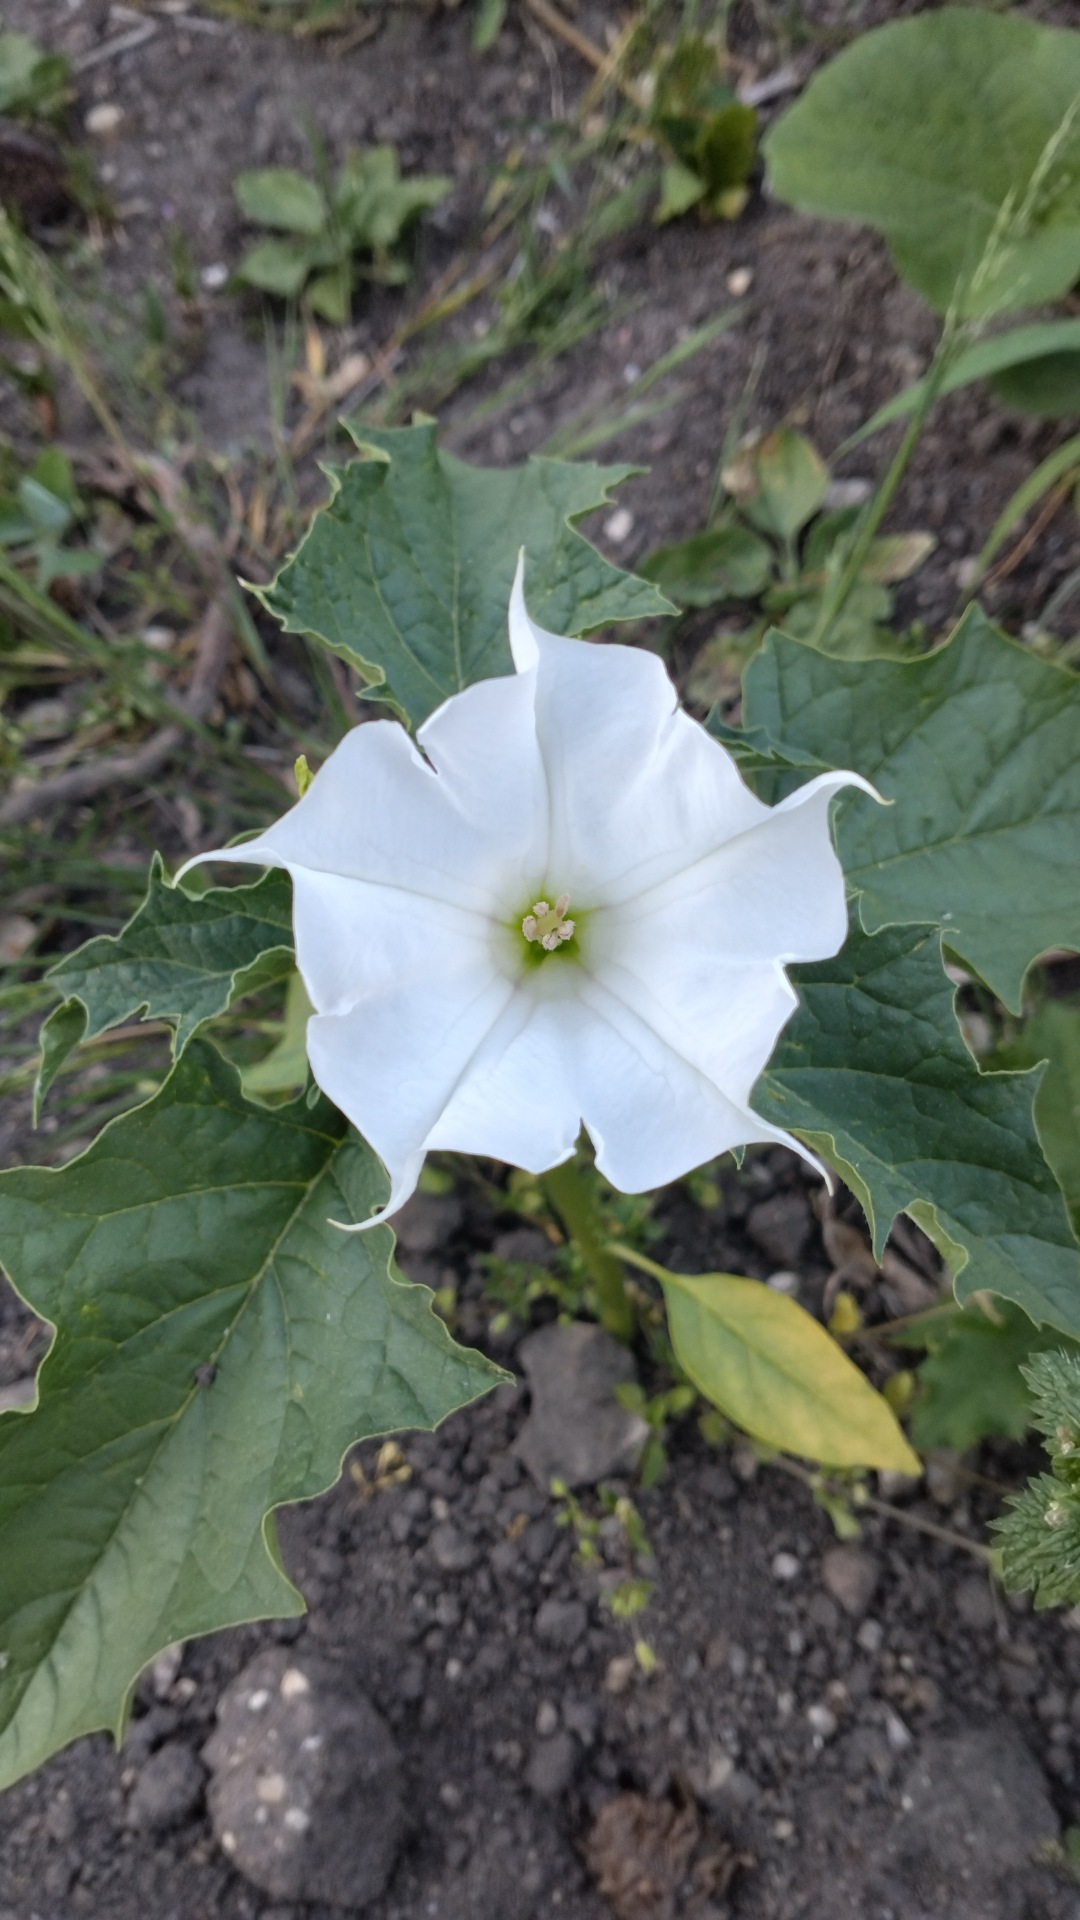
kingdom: Plantae
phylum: Tracheophyta
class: Magnoliopsida
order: Solanales
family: Solanaceae
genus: Datura
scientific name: Datura stramonium
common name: Pigæble
